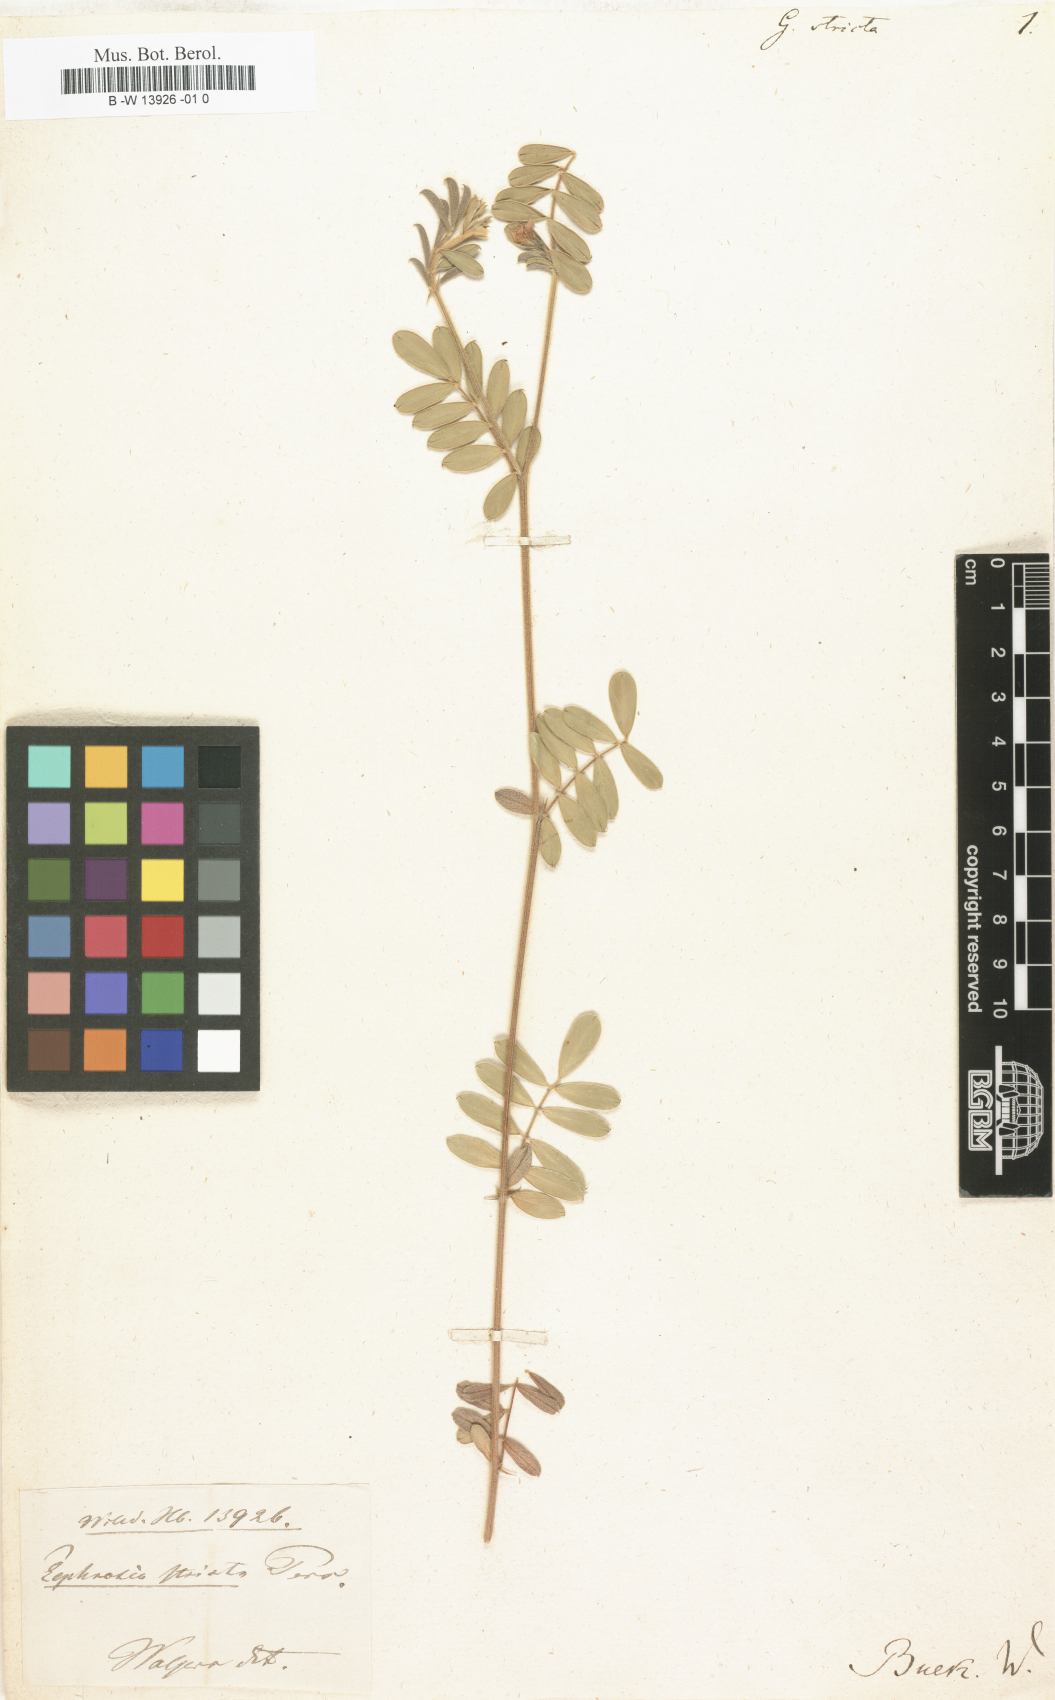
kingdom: Plantae
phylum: Tracheophyta
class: Magnoliopsida
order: Fabales
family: Fabaceae
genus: Indigofera
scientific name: Indigofera stricta
